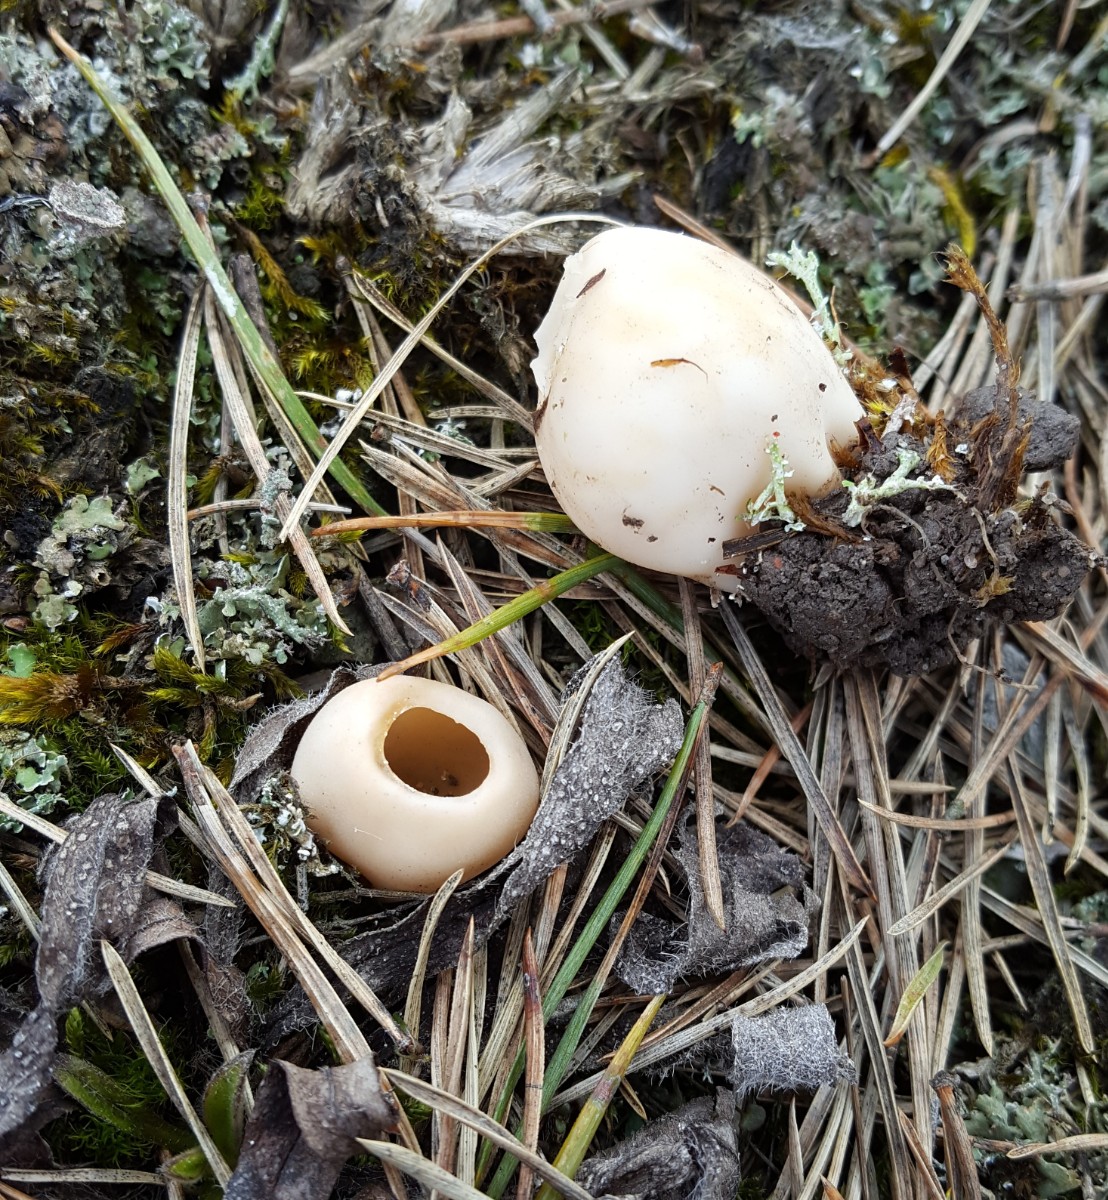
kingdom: Fungi
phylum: Ascomycota
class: Pezizomycetes
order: Pezizales
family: Helvellaceae
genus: Dissingia
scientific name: Dissingia leucomelaena
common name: sorthvid foldhat
